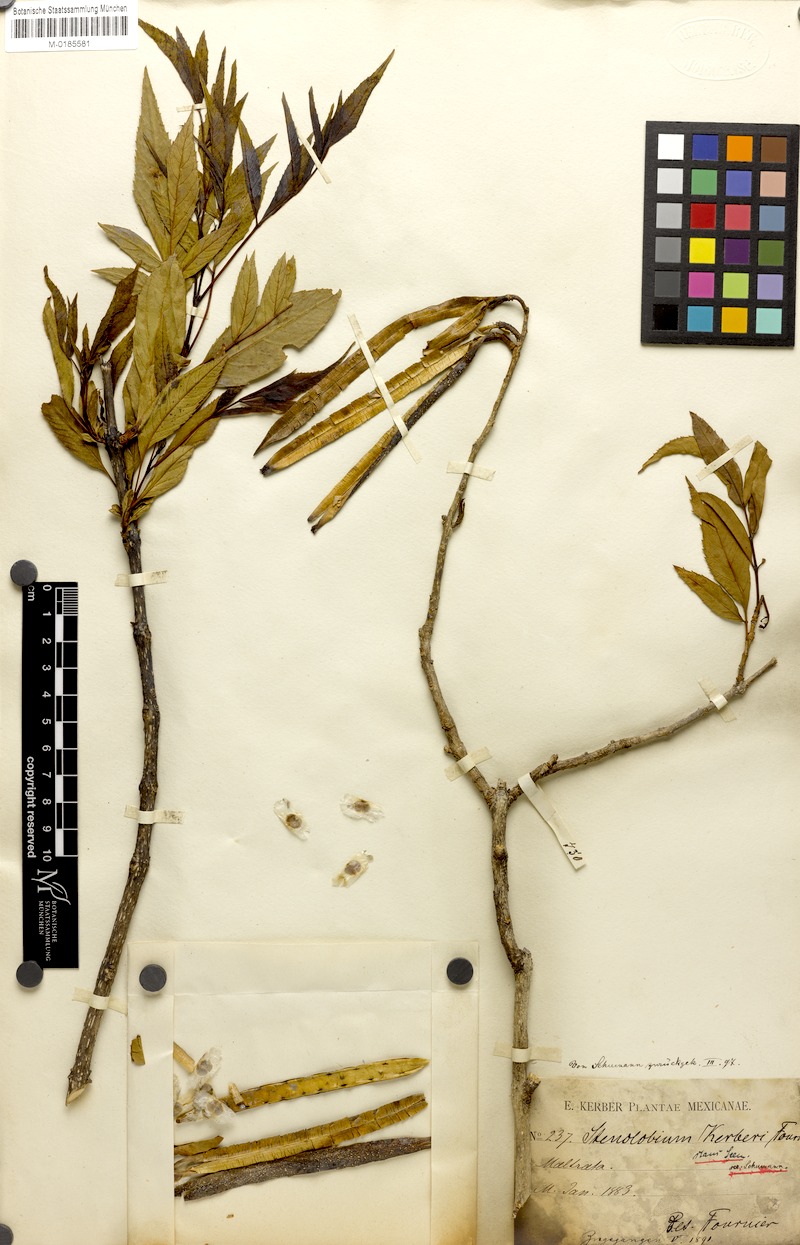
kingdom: Plantae
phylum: Tracheophyta
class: Magnoliopsida
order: Lamiales
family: Bignoniaceae
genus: Tecoma
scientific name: Tecoma stans
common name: Yellow trumpetbush
